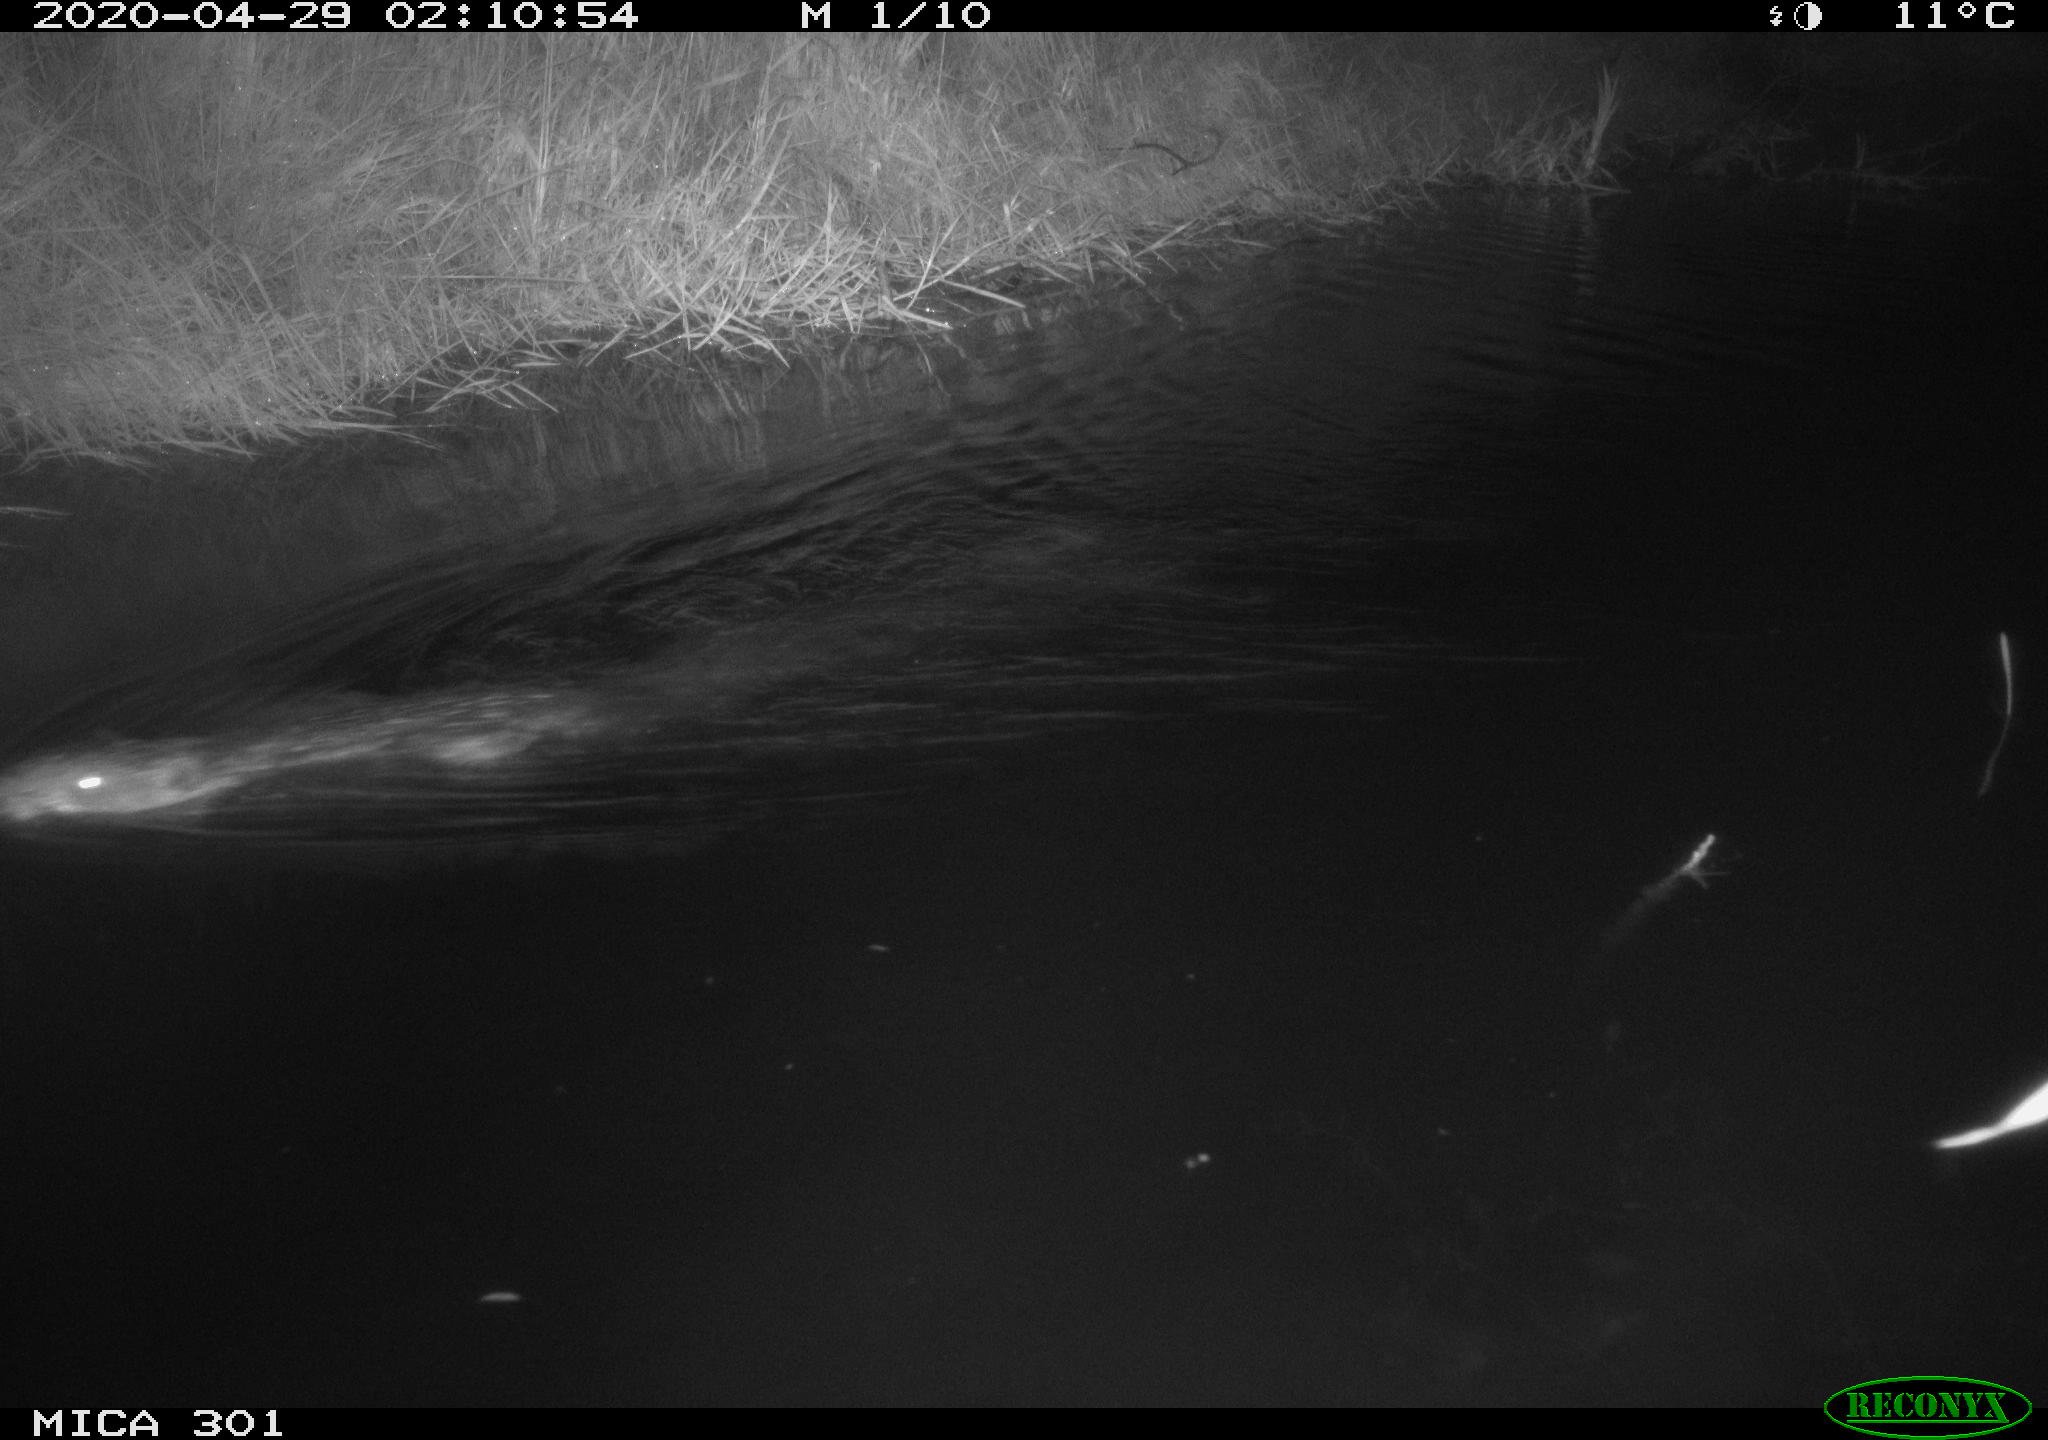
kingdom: Animalia
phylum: Chordata
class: Mammalia
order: Rodentia
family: Castoridae
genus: Castor
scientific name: Castor fiber
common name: Eurasian beaver
